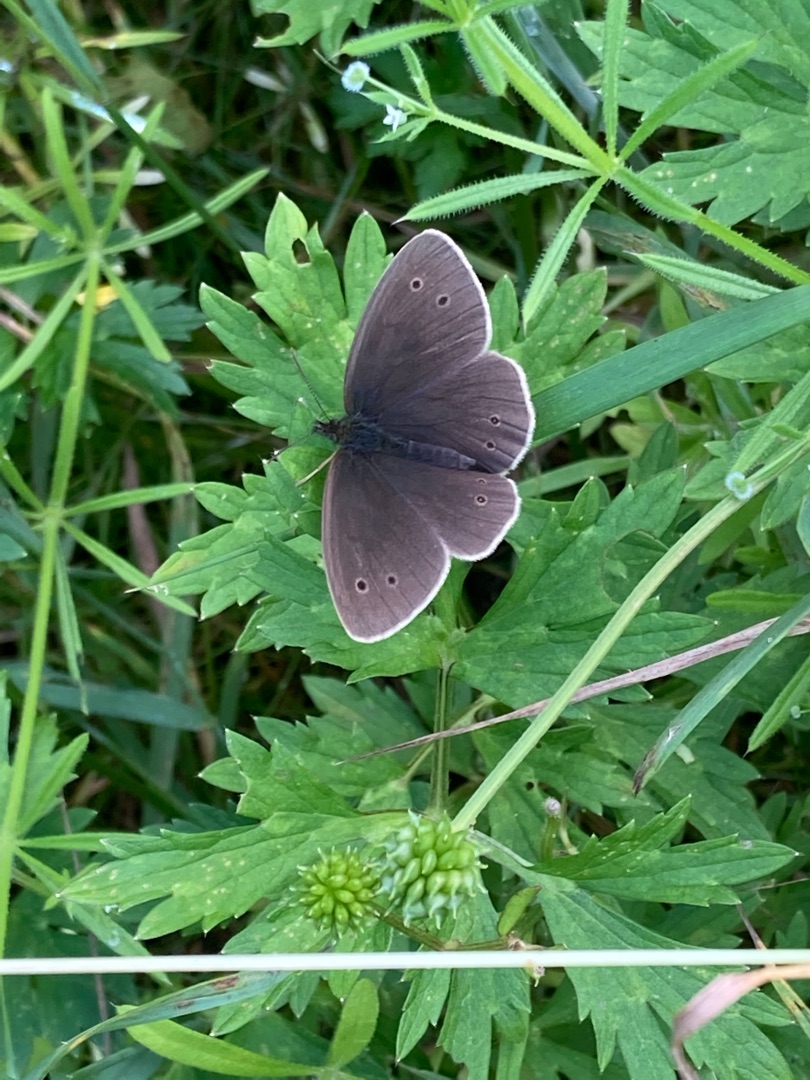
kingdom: Animalia
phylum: Arthropoda
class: Insecta
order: Lepidoptera
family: Nymphalidae
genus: Aphantopus
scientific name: Aphantopus hyperantus
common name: Engrandøje
